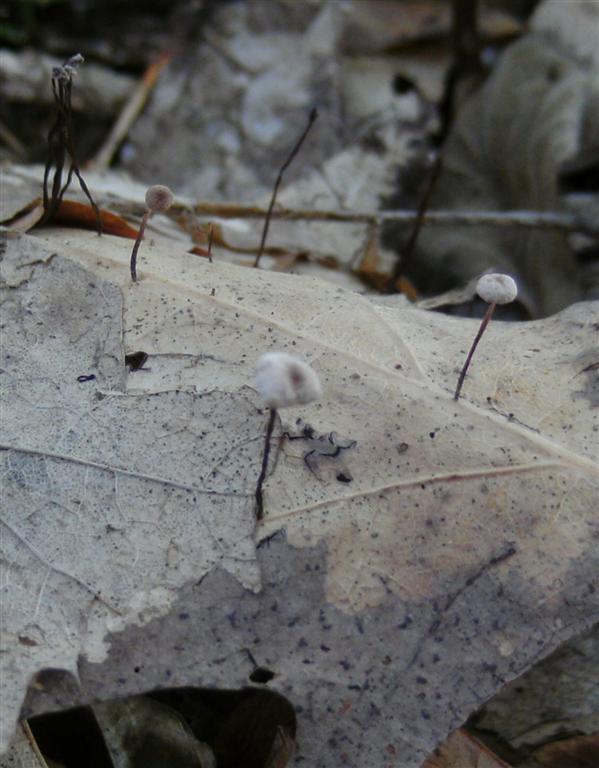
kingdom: Fungi
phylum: Basidiomycota
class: Agaricomycetes
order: Agaricales
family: Omphalotaceae
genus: Collybiopsis
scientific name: Collybiopsis quercophila
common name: egeblads-bruskhat
